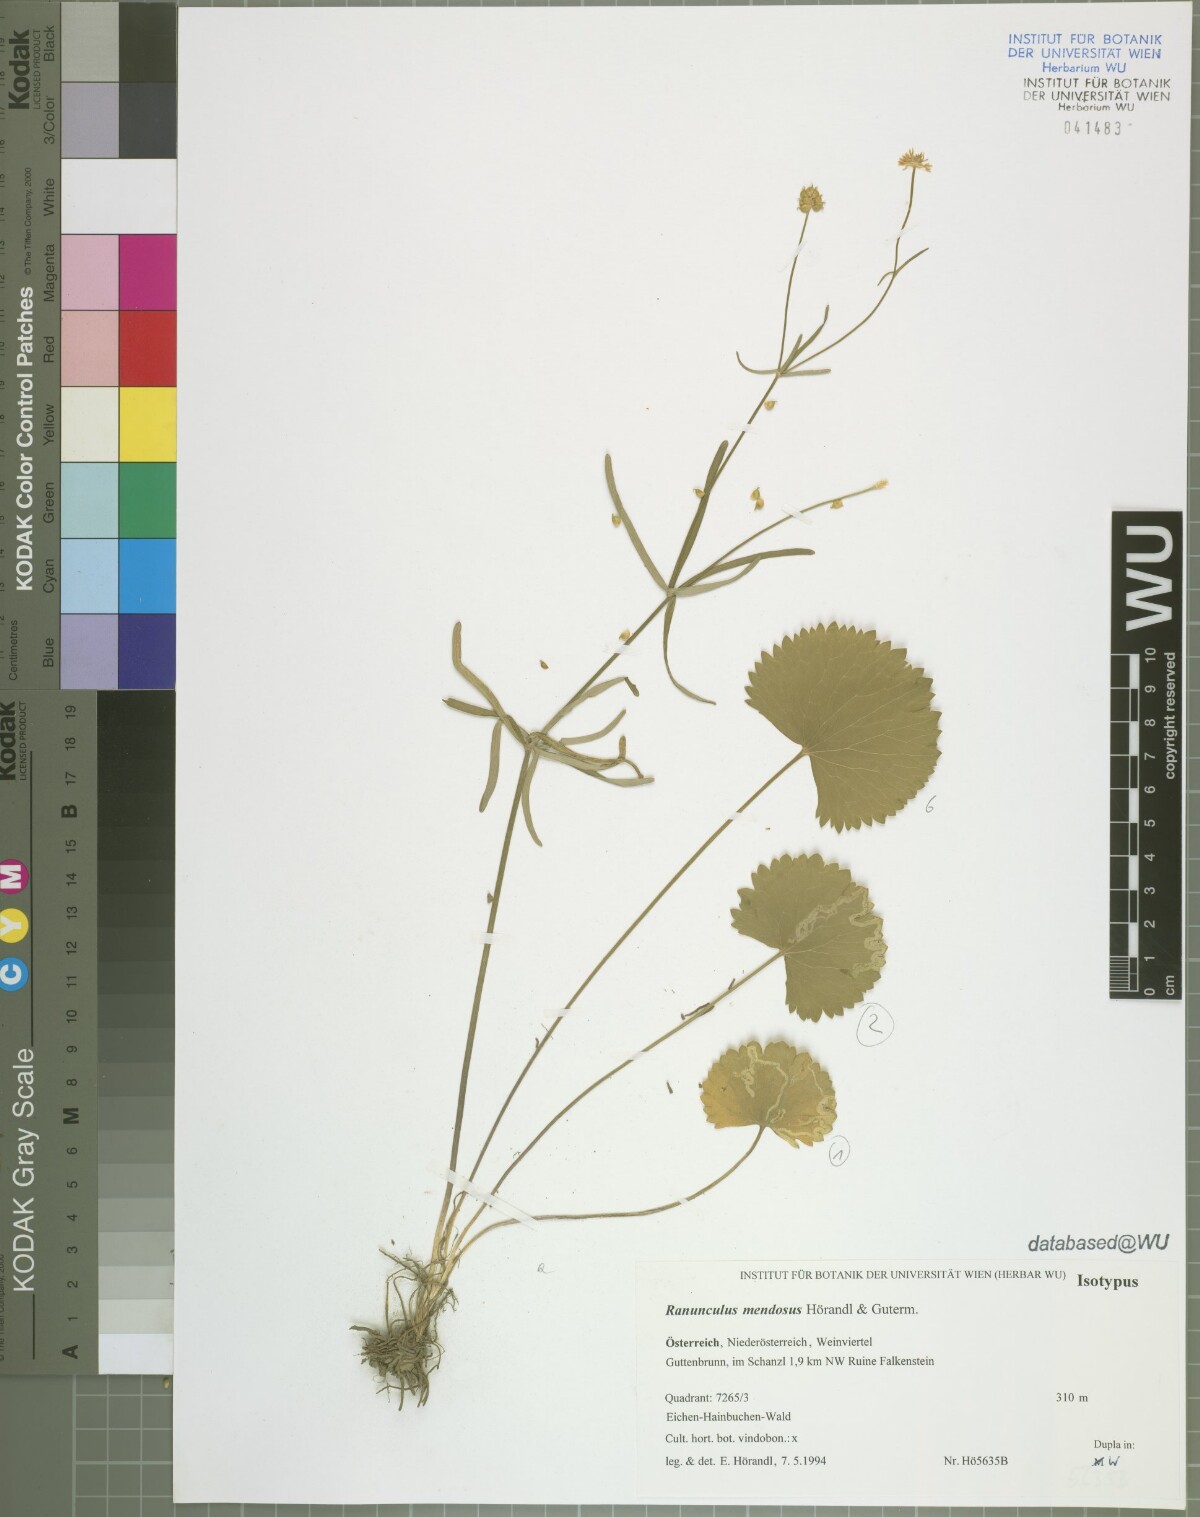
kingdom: Plantae
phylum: Tracheophyta
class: Magnoliopsida
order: Ranunculales
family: Ranunculaceae
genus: Ranunculus
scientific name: Ranunculus mendosus
